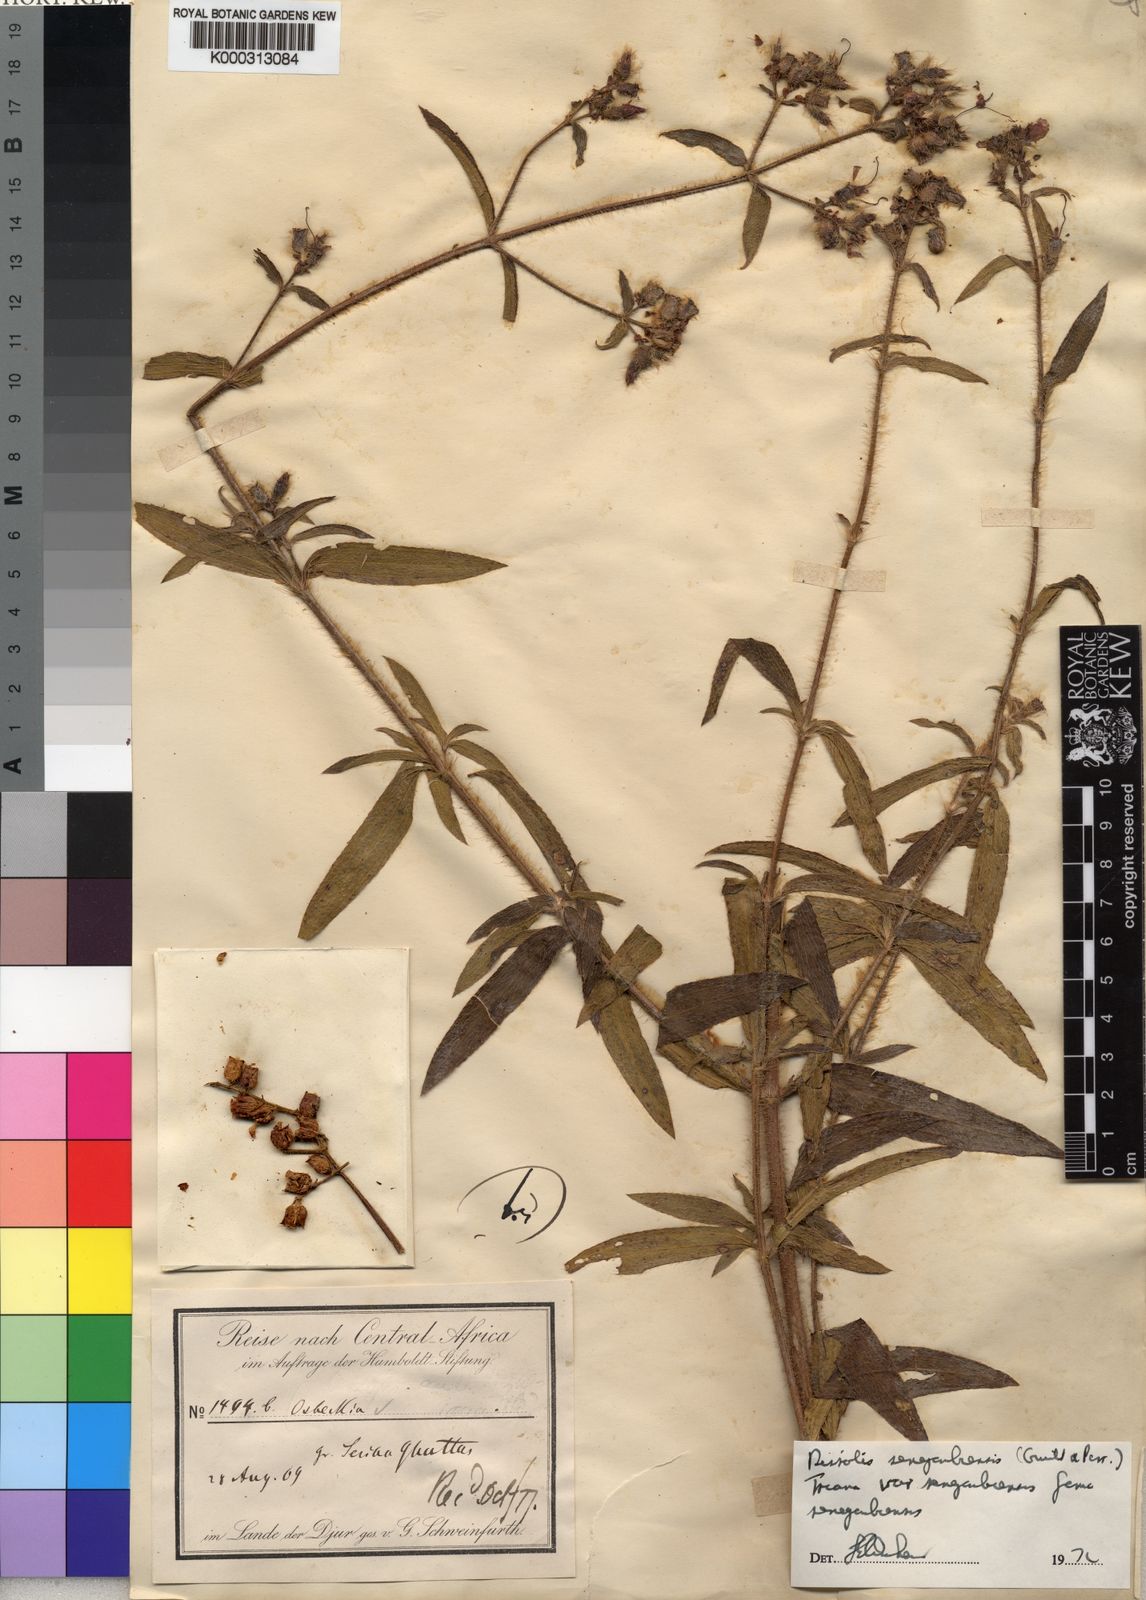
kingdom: Plantae
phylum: Tracheophyta
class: Magnoliopsida
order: Myrtales
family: Melastomataceae
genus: Antherotoma
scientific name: Antherotoma
